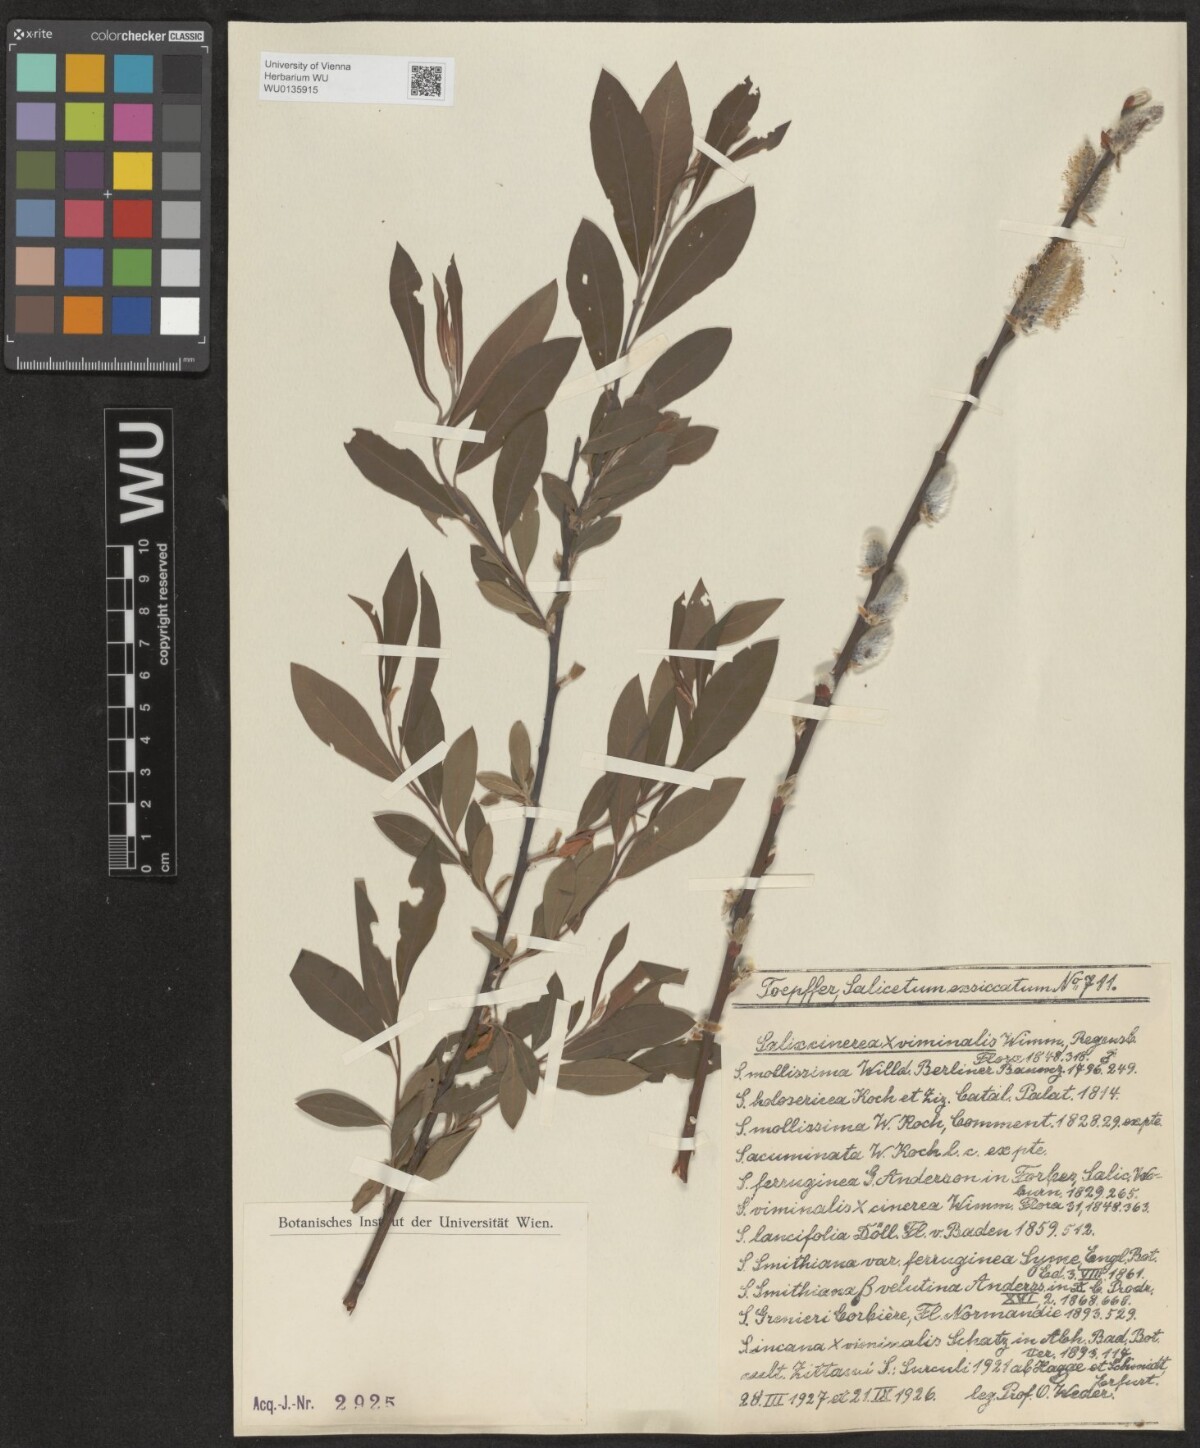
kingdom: Plantae
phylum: Tracheophyta
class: Magnoliopsida
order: Malpighiales
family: Salicaceae
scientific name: Salicaceae
